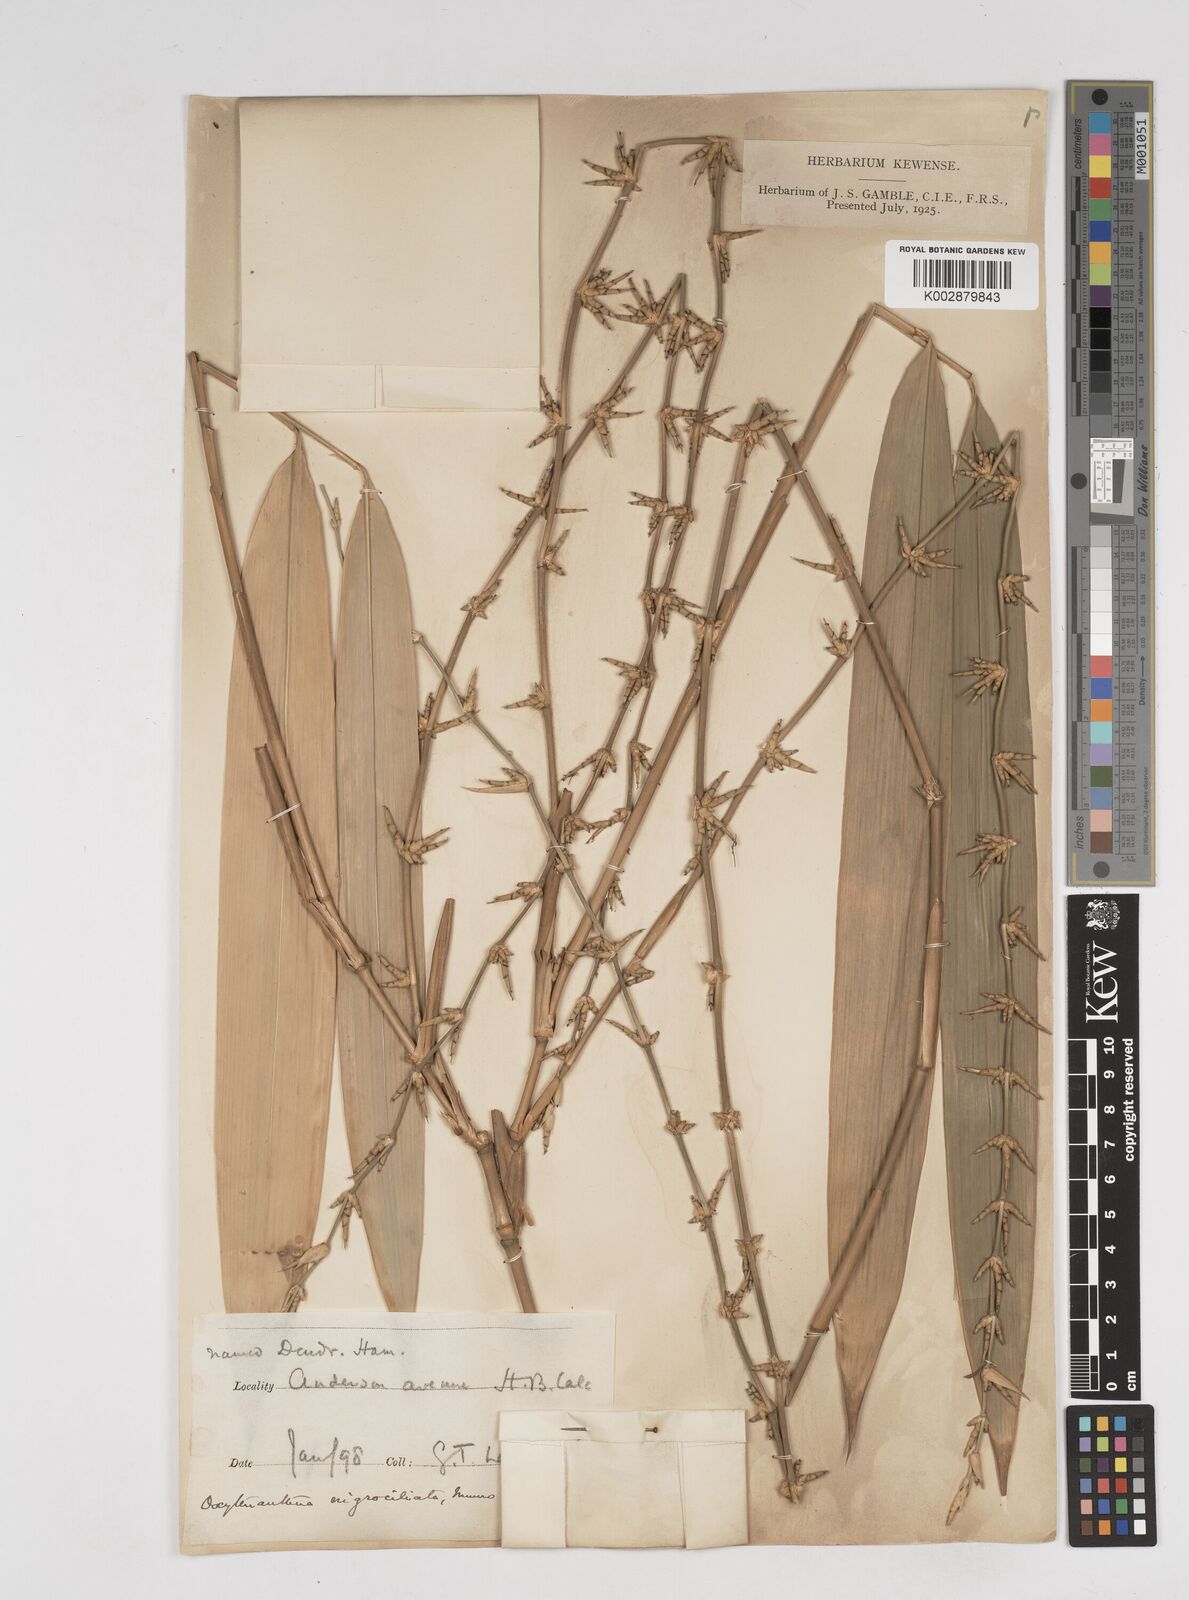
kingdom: Plantae
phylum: Tracheophyta
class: Liliopsida
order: Poales
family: Poaceae
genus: Gigantochloa
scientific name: Gigantochloa nigrociliata
